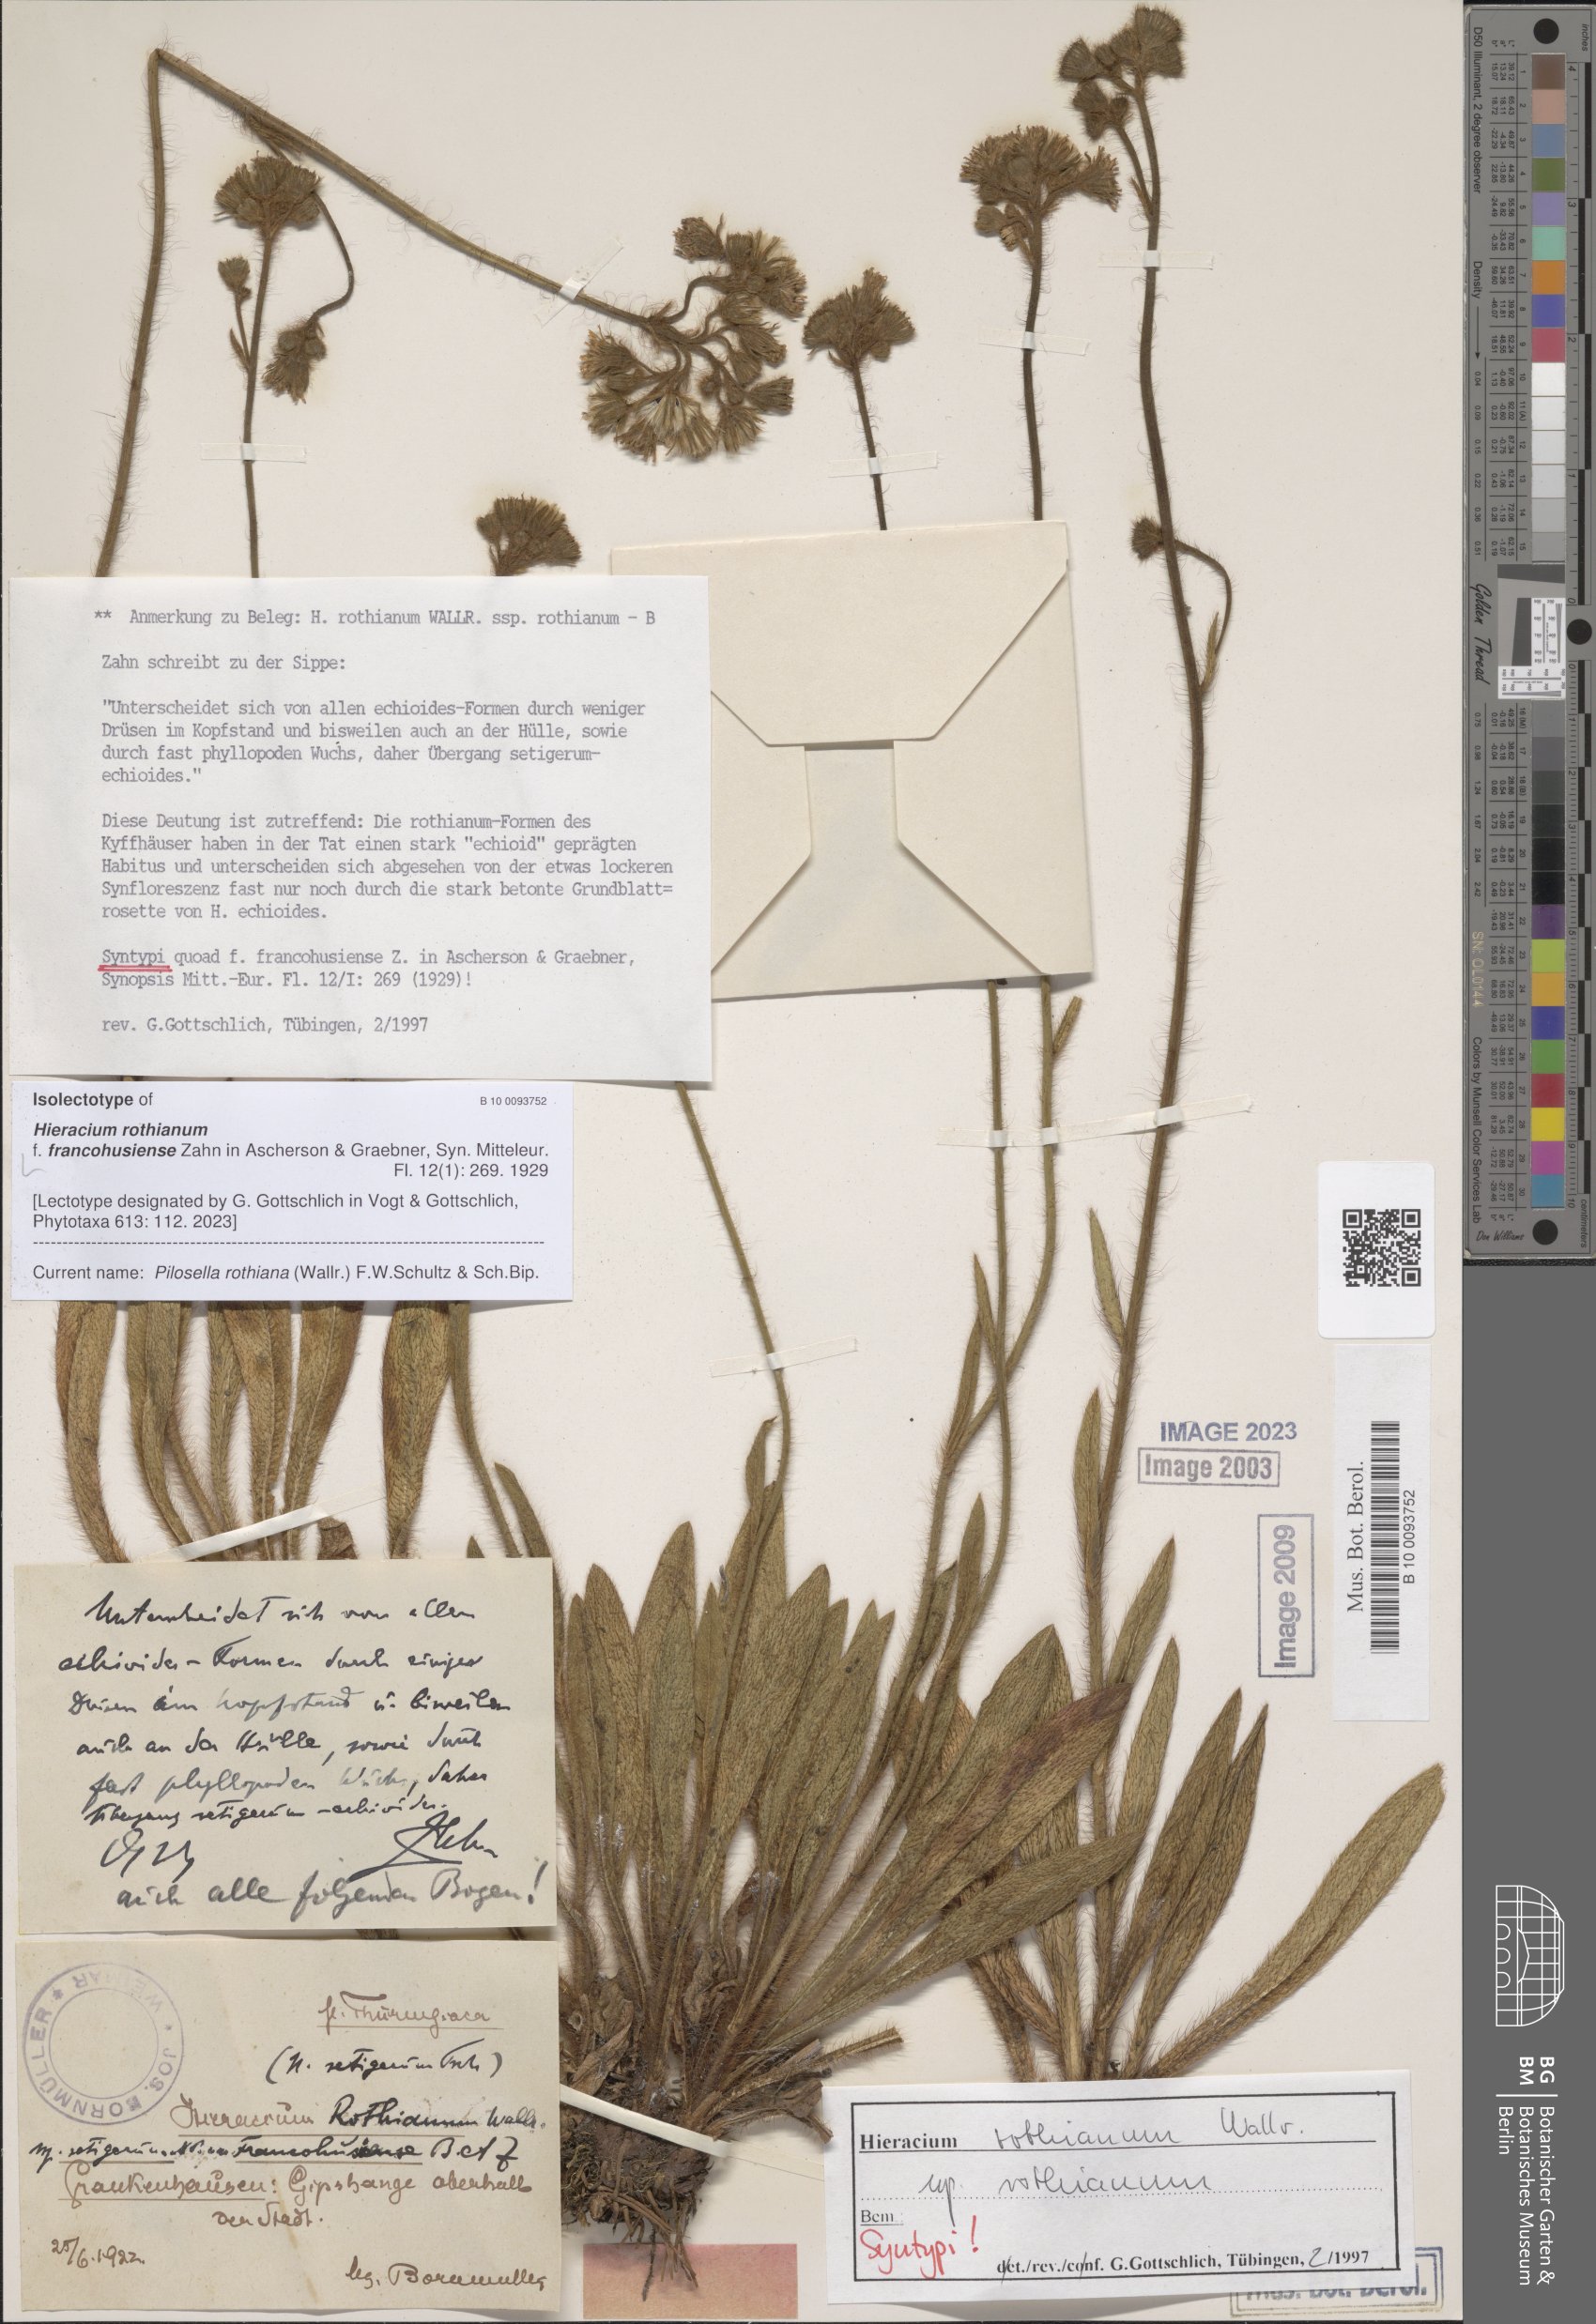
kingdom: Plantae
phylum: Tracheophyta
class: Magnoliopsida
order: Asterales
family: Asteraceae
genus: Hieracium
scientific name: Hieracium rothianum
